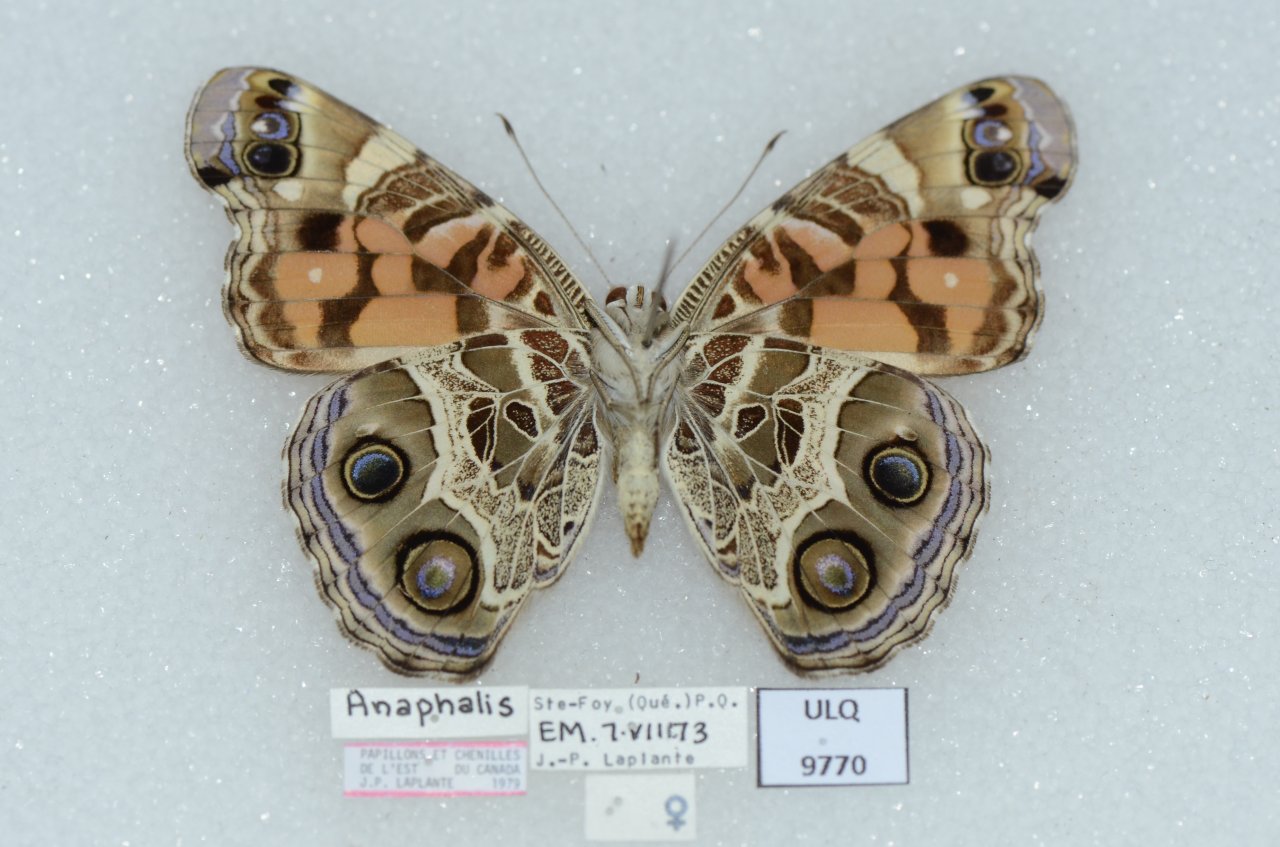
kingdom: Animalia
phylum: Arthropoda
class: Insecta
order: Lepidoptera
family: Nymphalidae
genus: Vanessa
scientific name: Vanessa virginiensis
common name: American Lady
